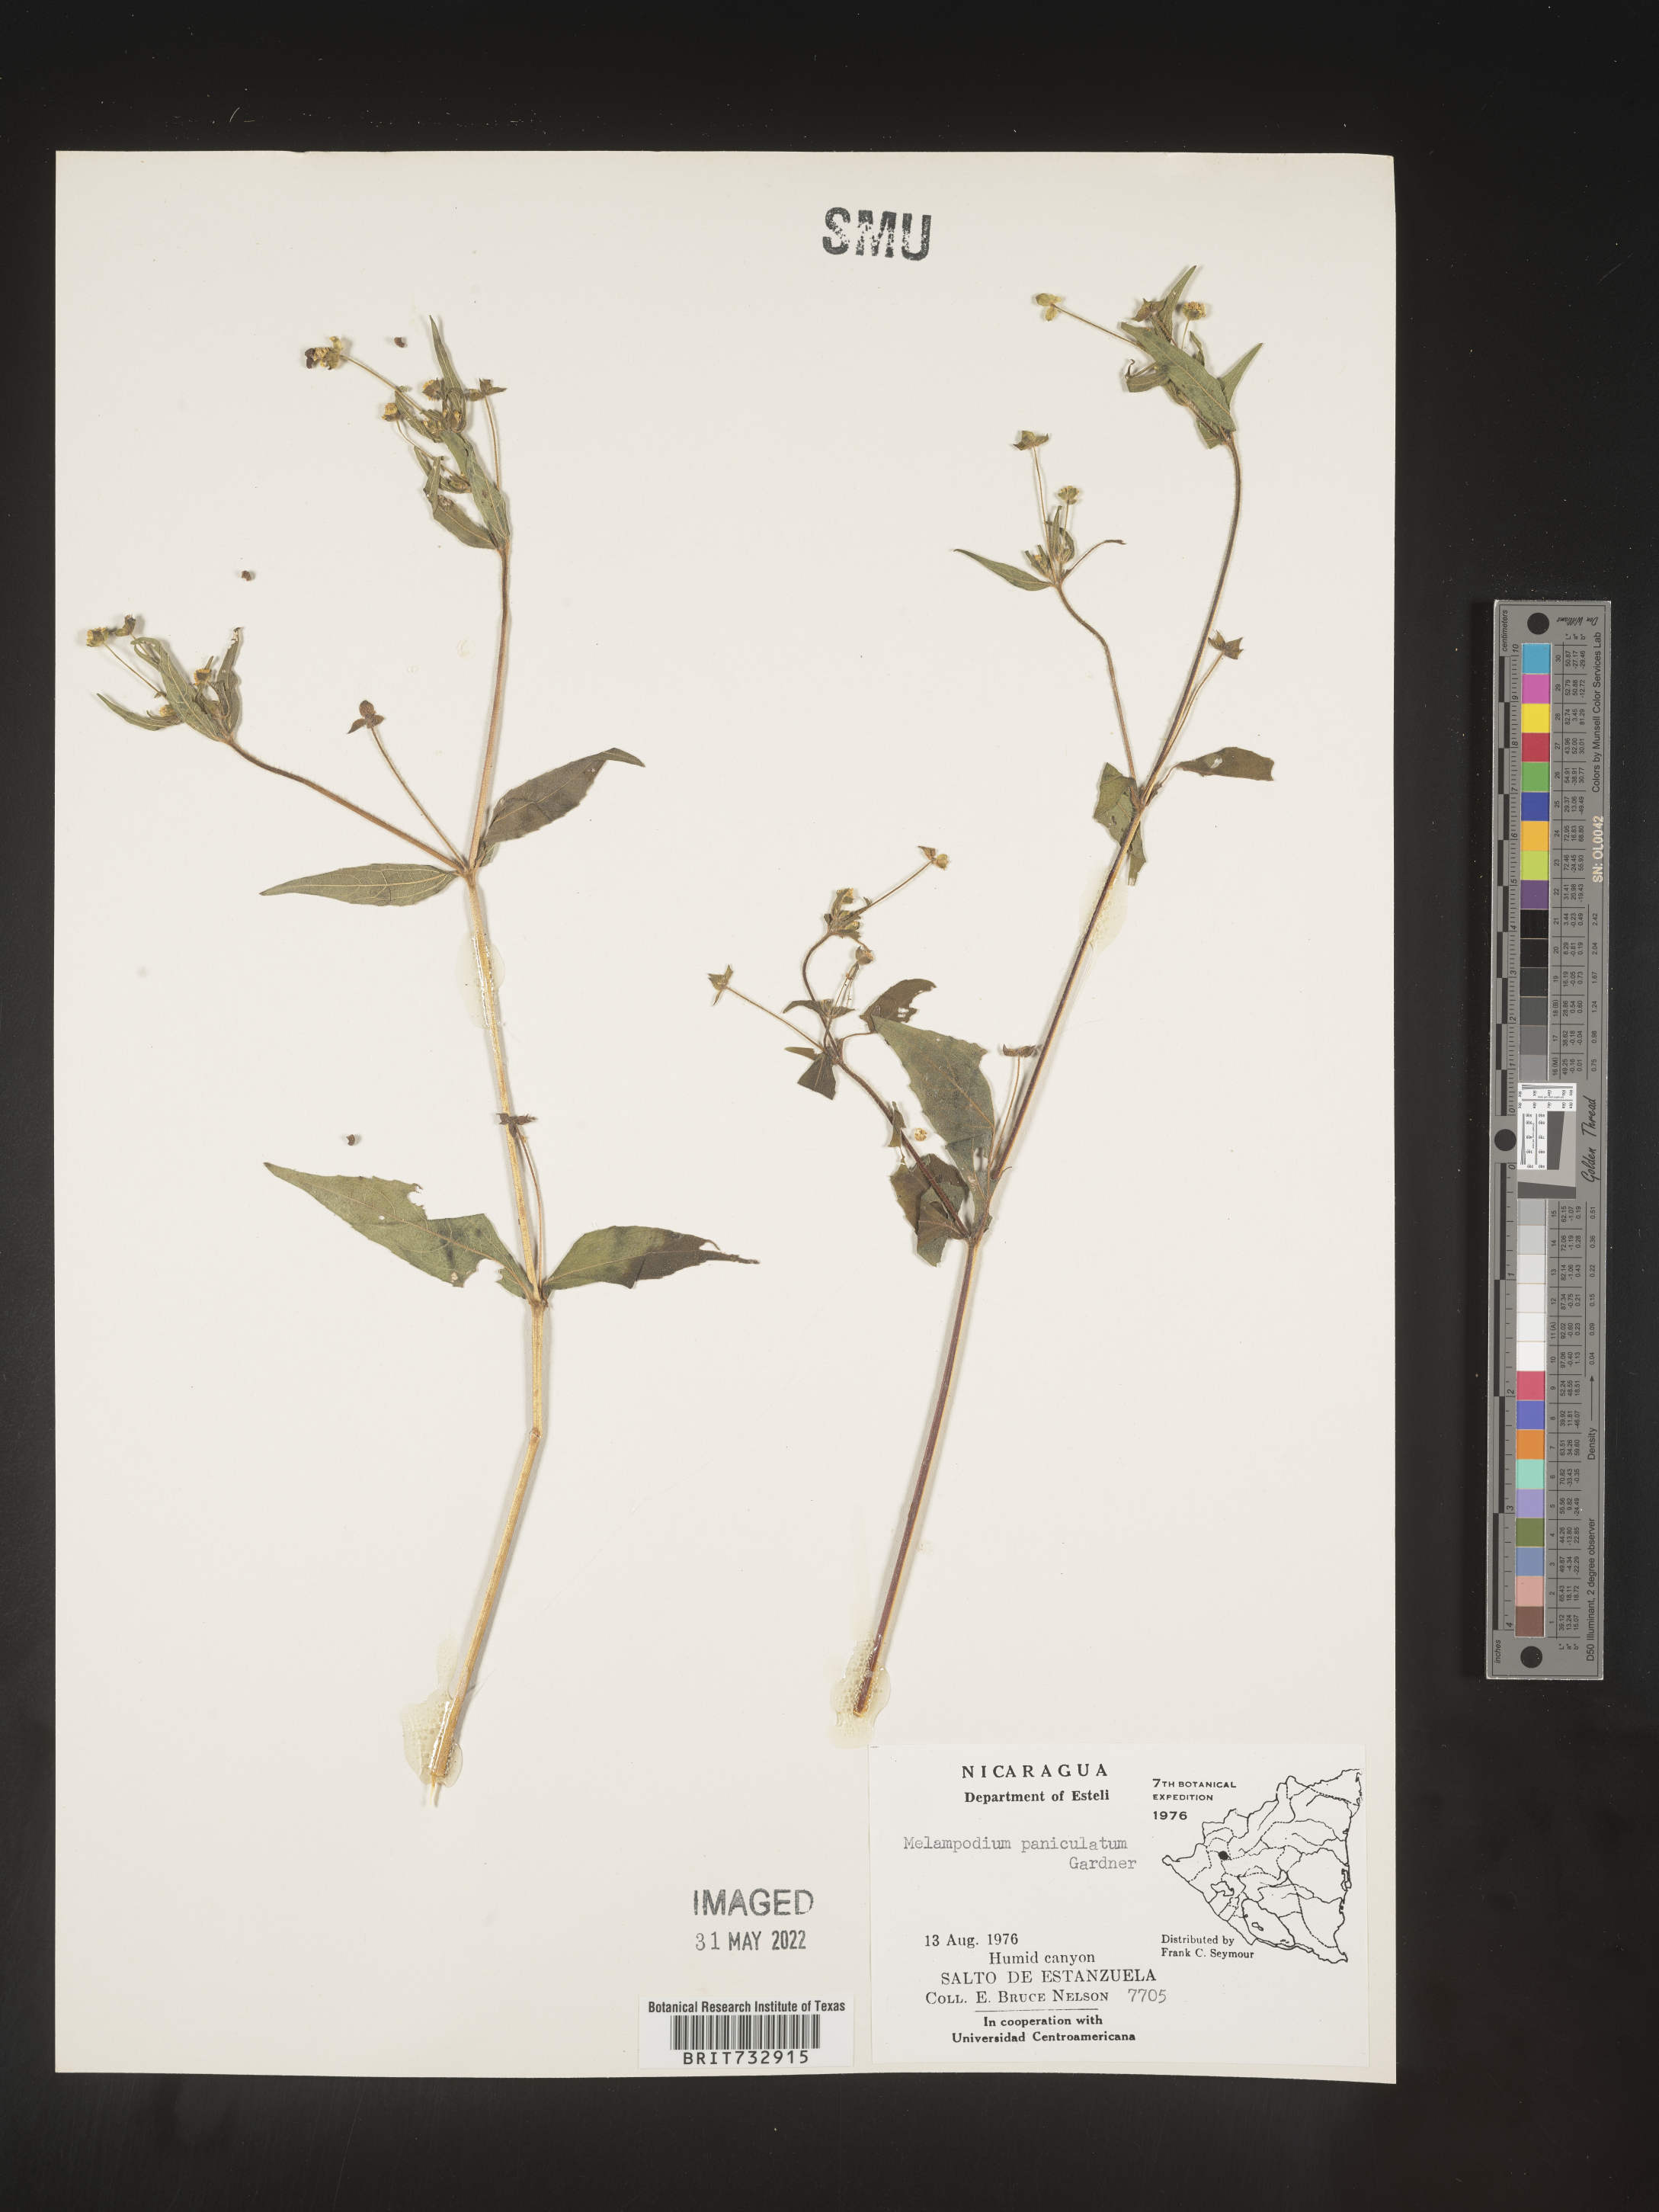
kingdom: Plantae
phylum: Tracheophyta
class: Magnoliopsida
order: Asterales
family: Asteraceae
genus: Melampodium
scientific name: Melampodium
